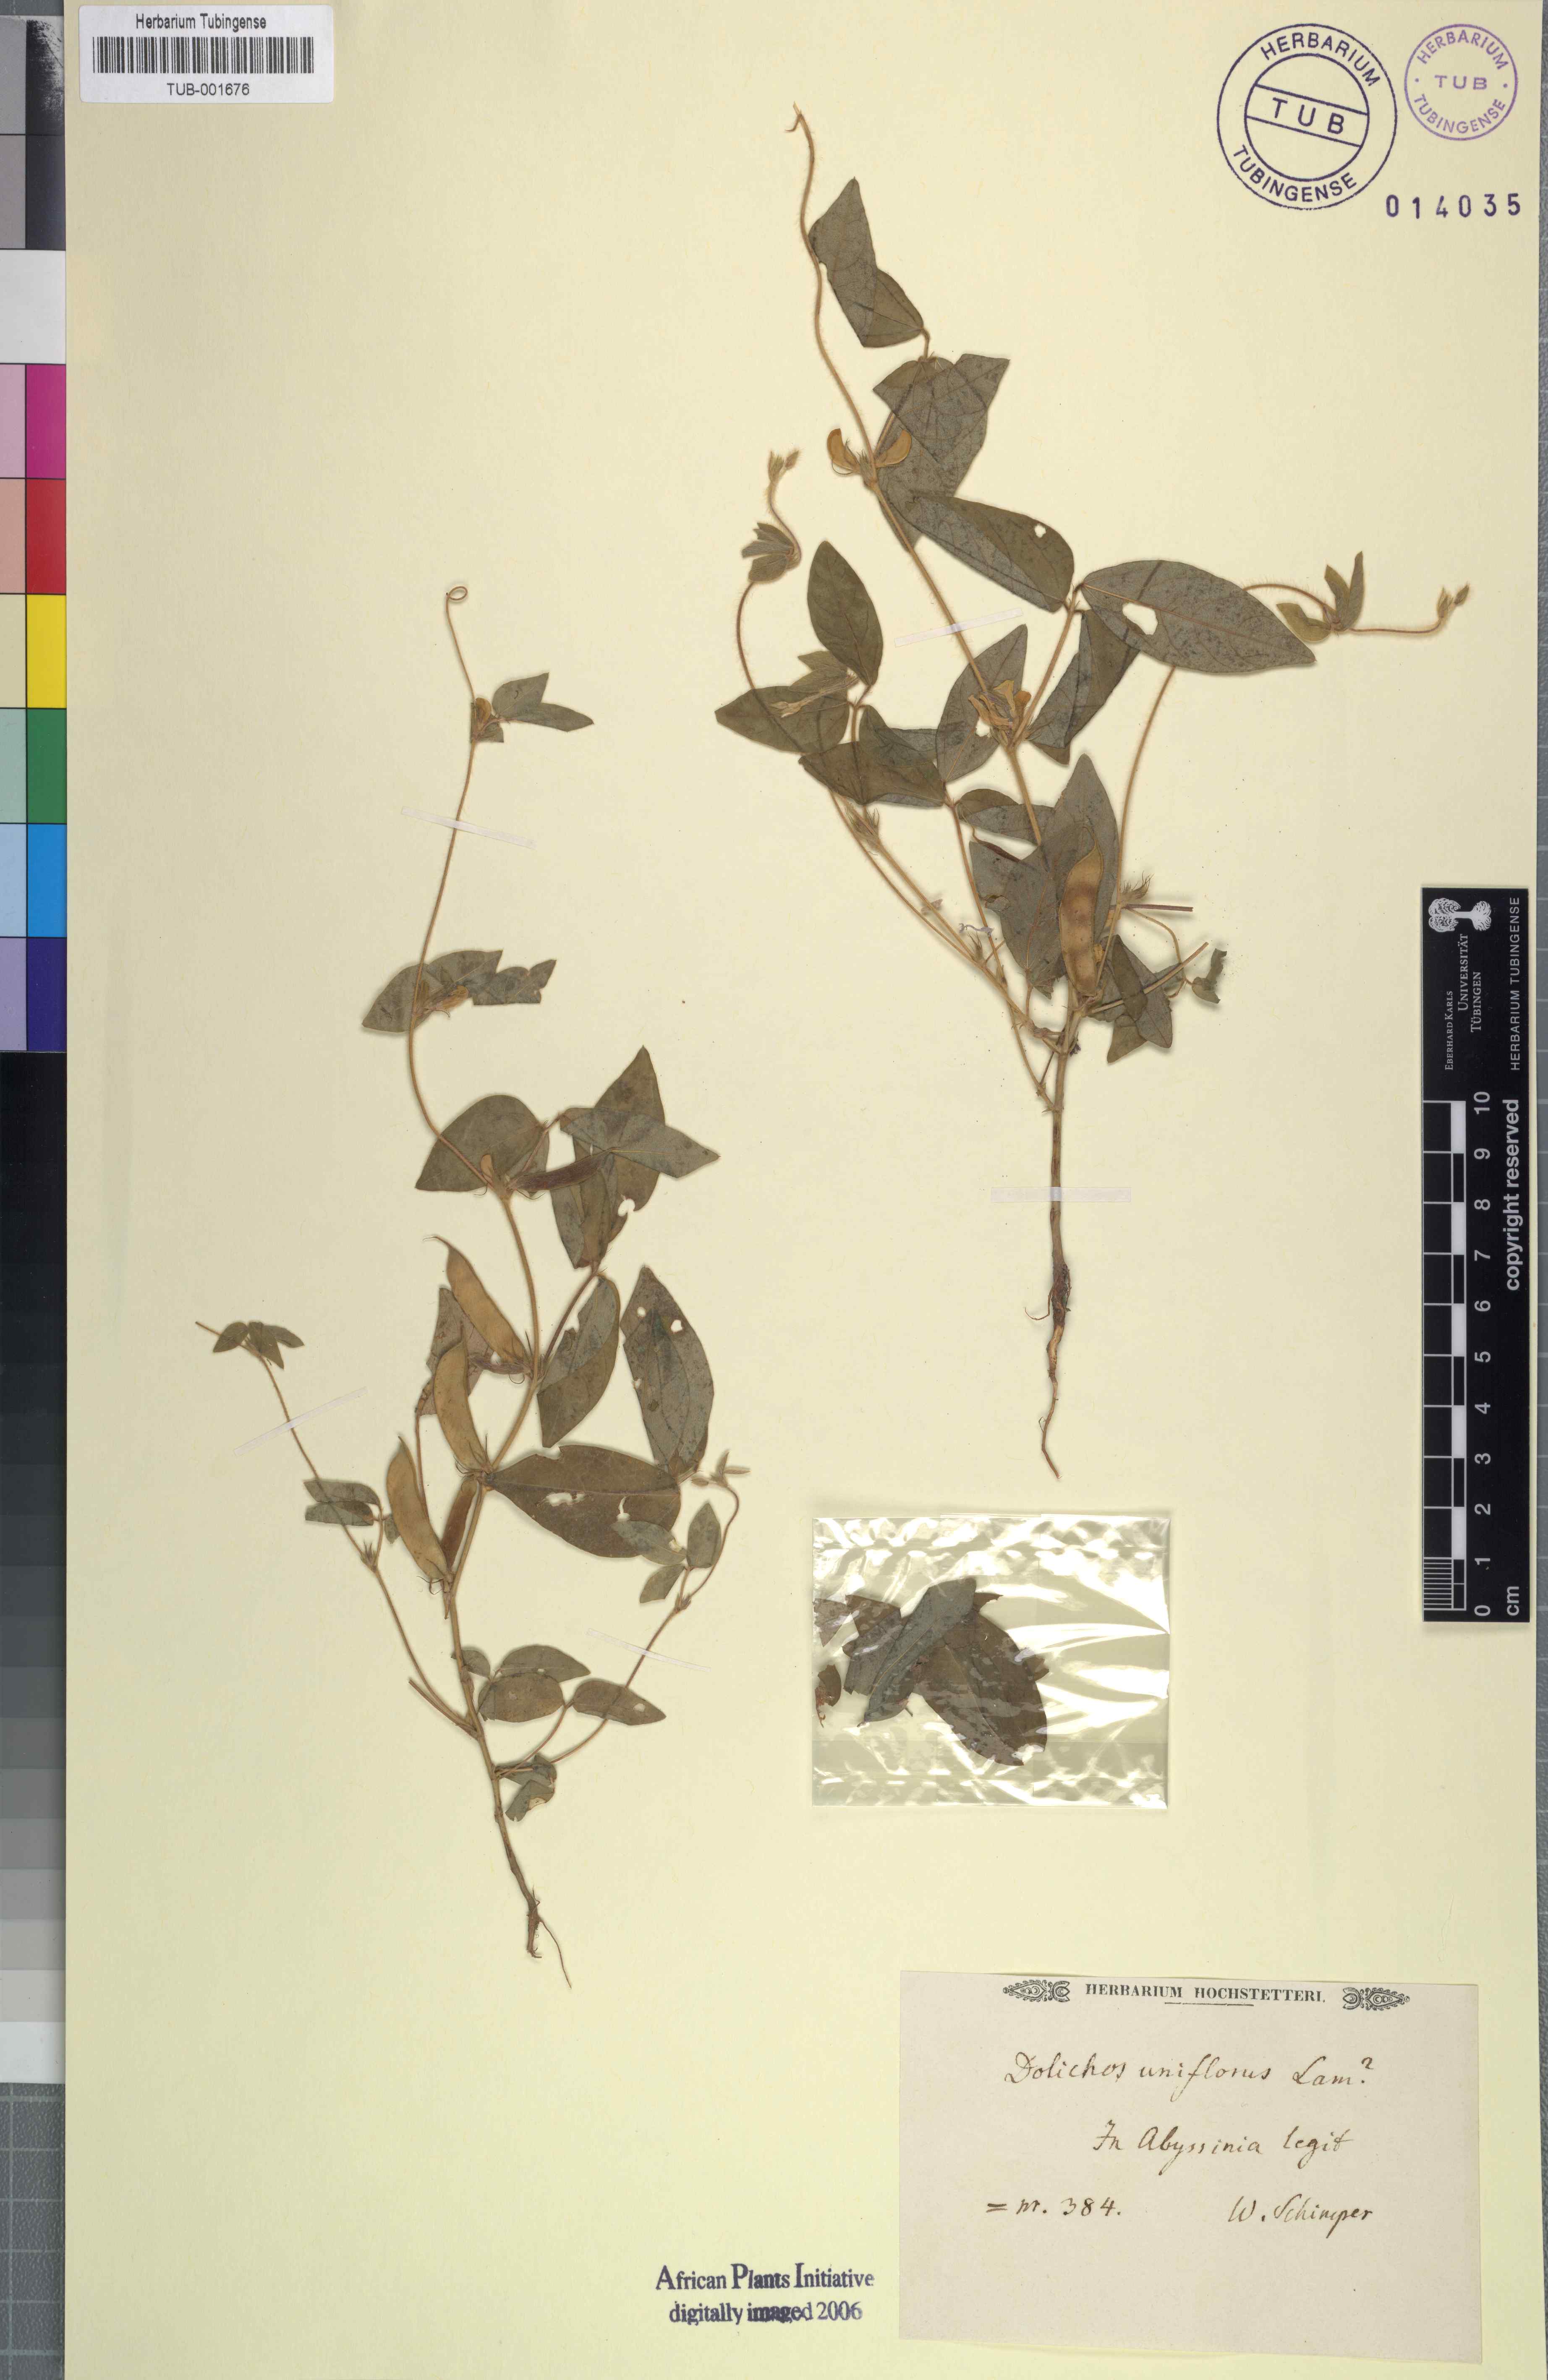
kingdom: Plantae
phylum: Tracheophyta
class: Magnoliopsida
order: Fabales
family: Fabaceae
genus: Macrotyloma
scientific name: Macrotyloma biflorum
